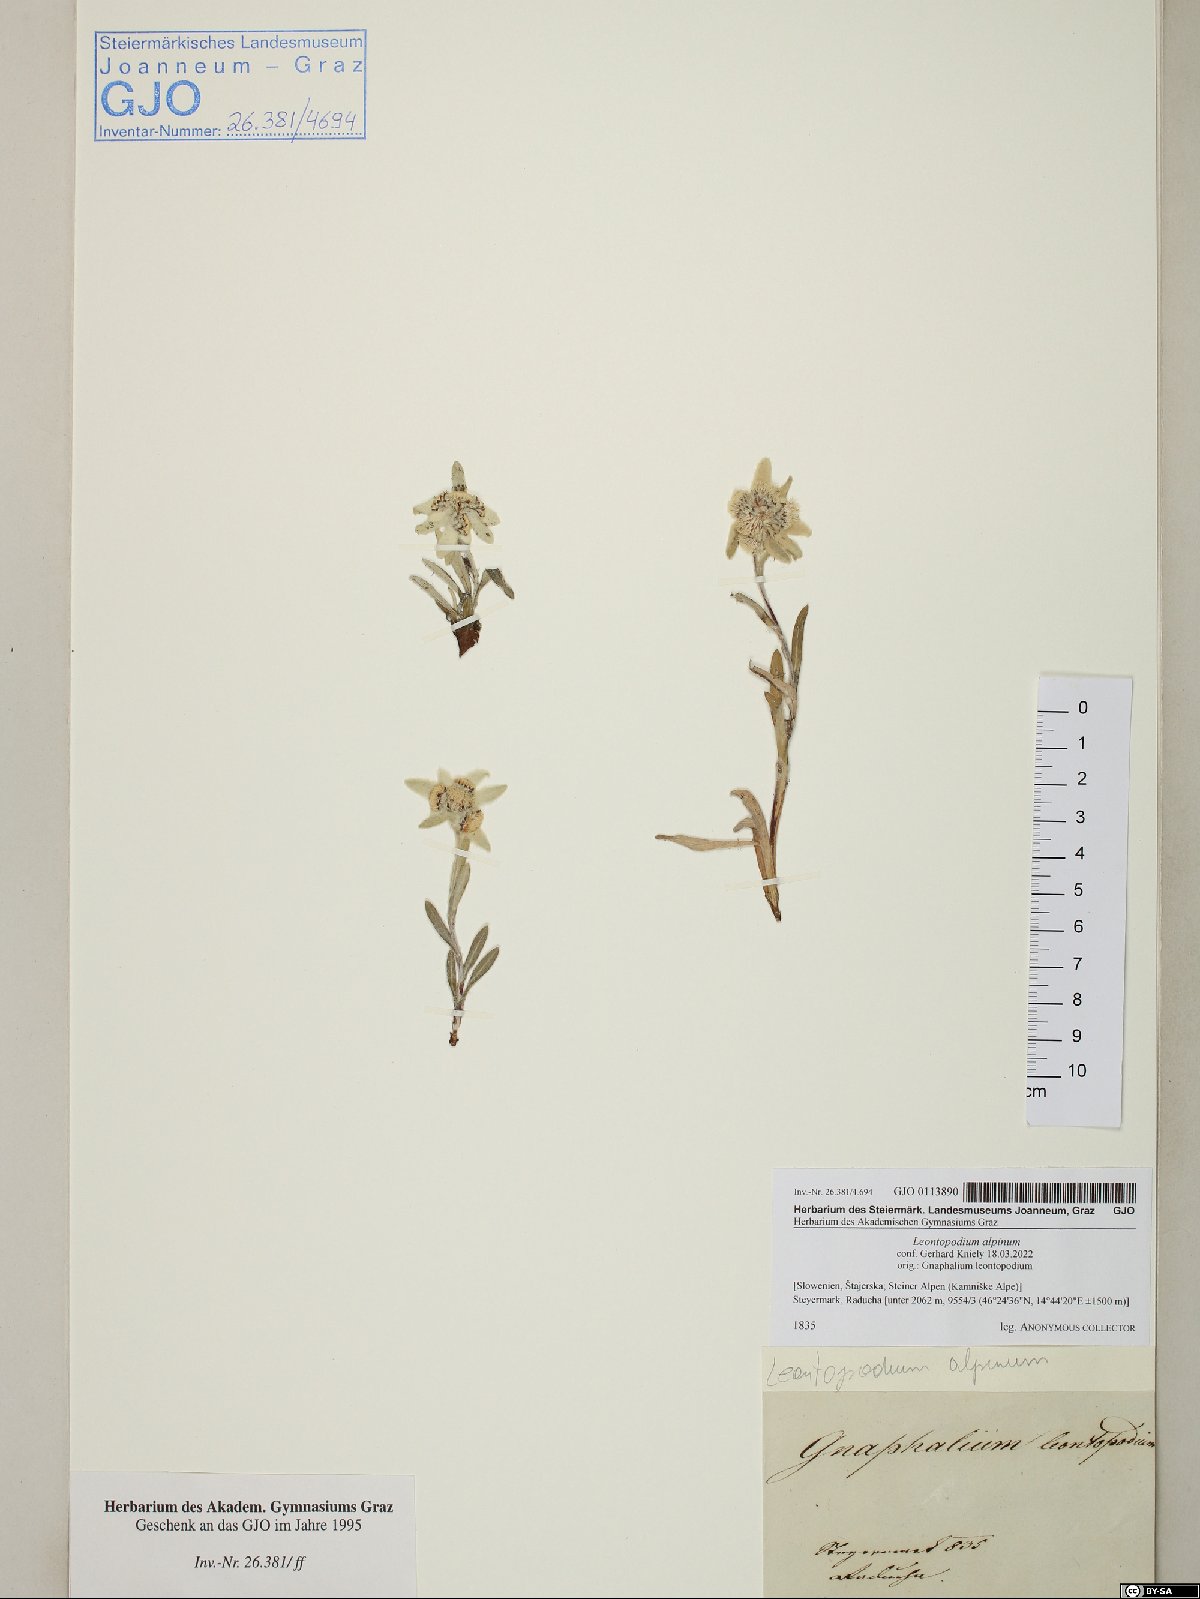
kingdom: Plantae
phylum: Tracheophyta
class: Magnoliopsida
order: Asterales
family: Asteraceae
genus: Leontopodium
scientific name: Leontopodium nivale
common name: Edelweiss
